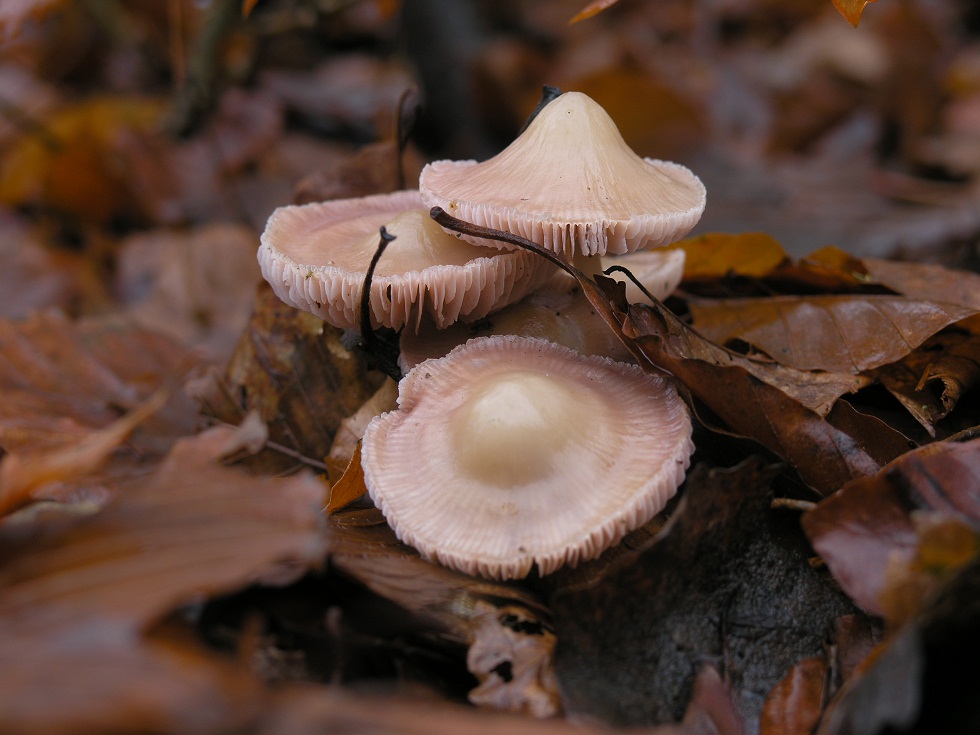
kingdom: Fungi
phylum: Basidiomycota
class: Agaricomycetes
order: Agaricales
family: Mycenaceae
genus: Mycena
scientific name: Mycena rosea
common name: rosa huesvamp
